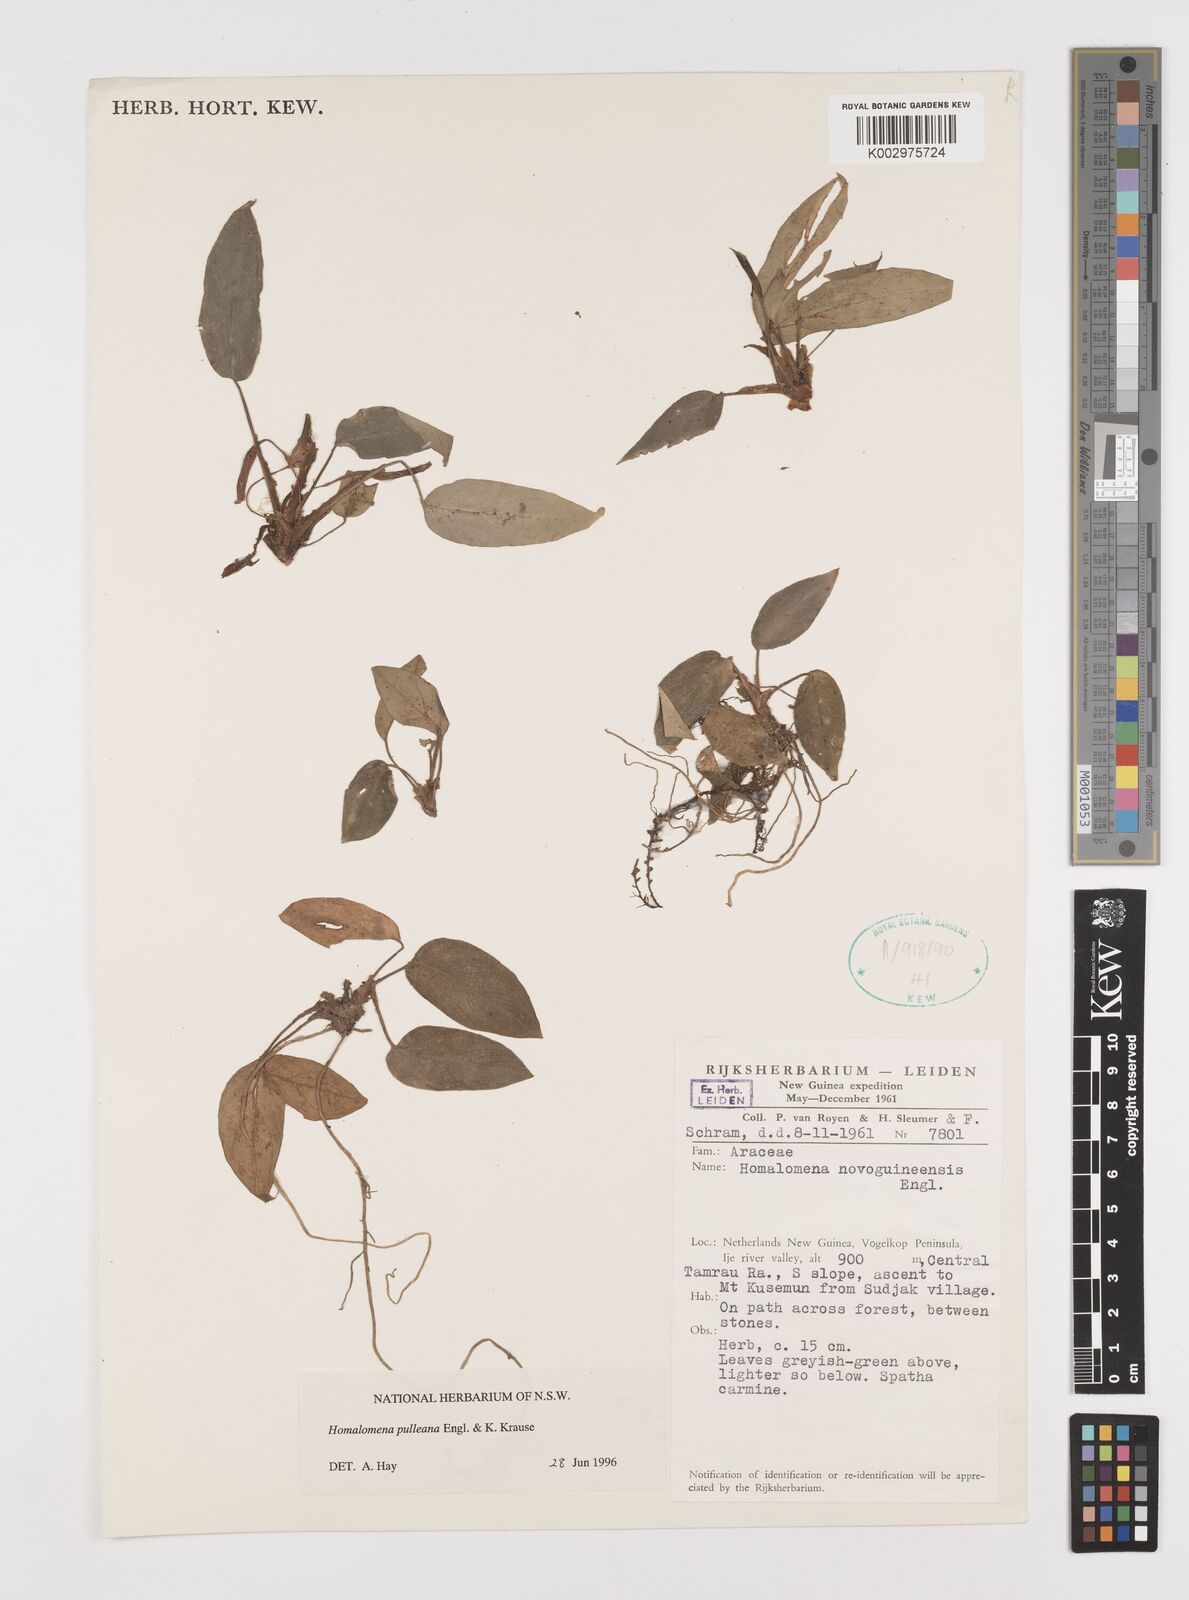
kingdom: Plantae
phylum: Tracheophyta
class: Liliopsida
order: Alismatales
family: Araceae
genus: Homalomena
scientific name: Homalomena pulleana
